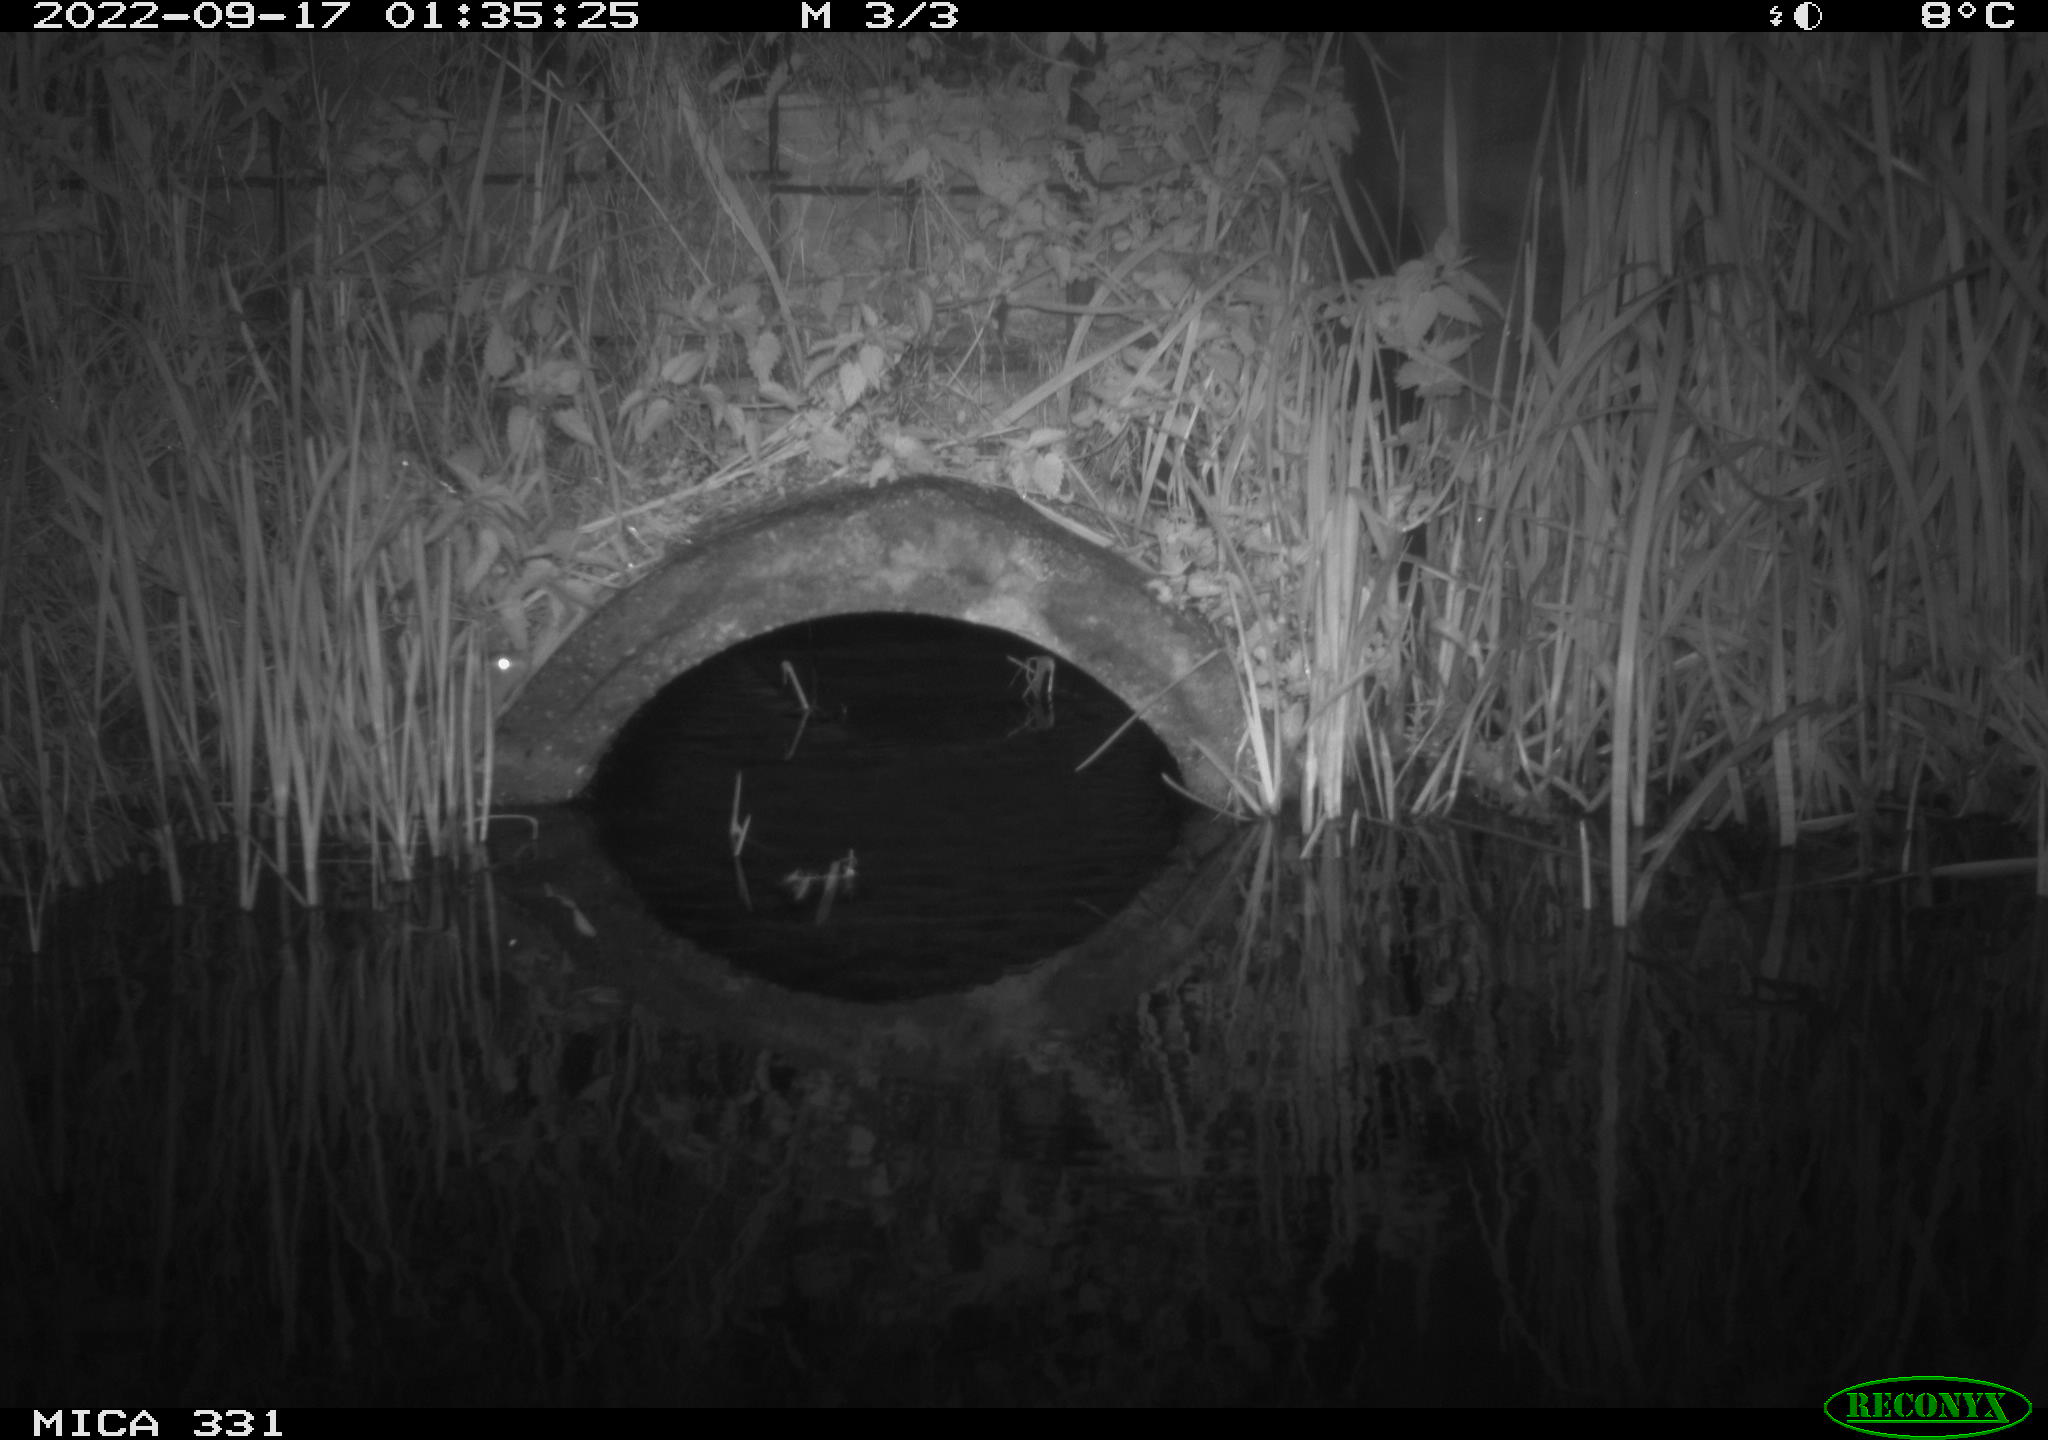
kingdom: Animalia
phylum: Chordata
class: Mammalia
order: Rodentia
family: Muridae
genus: Rattus
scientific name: Rattus norvegicus
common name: Brown rat
